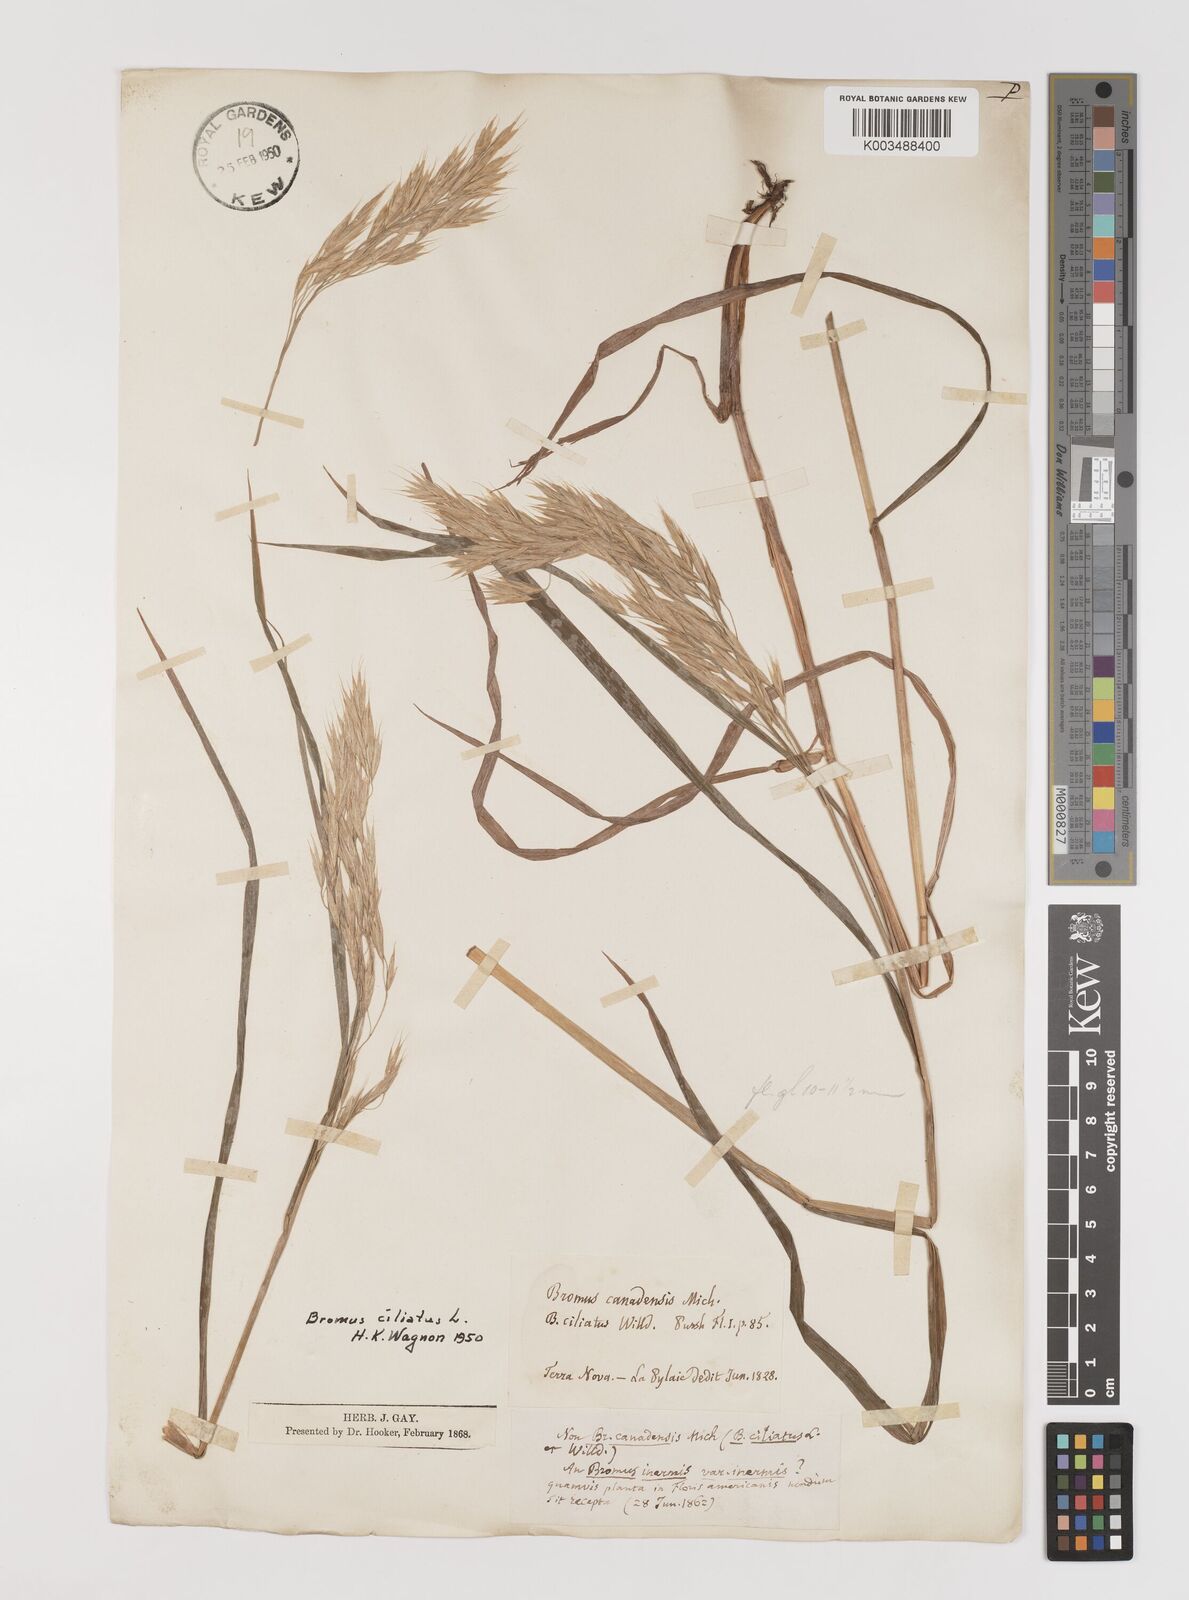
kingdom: Plantae
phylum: Tracheophyta
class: Liliopsida
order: Poales
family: Poaceae
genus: Bromus
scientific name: Bromus ciliatus
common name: Fringe brome
